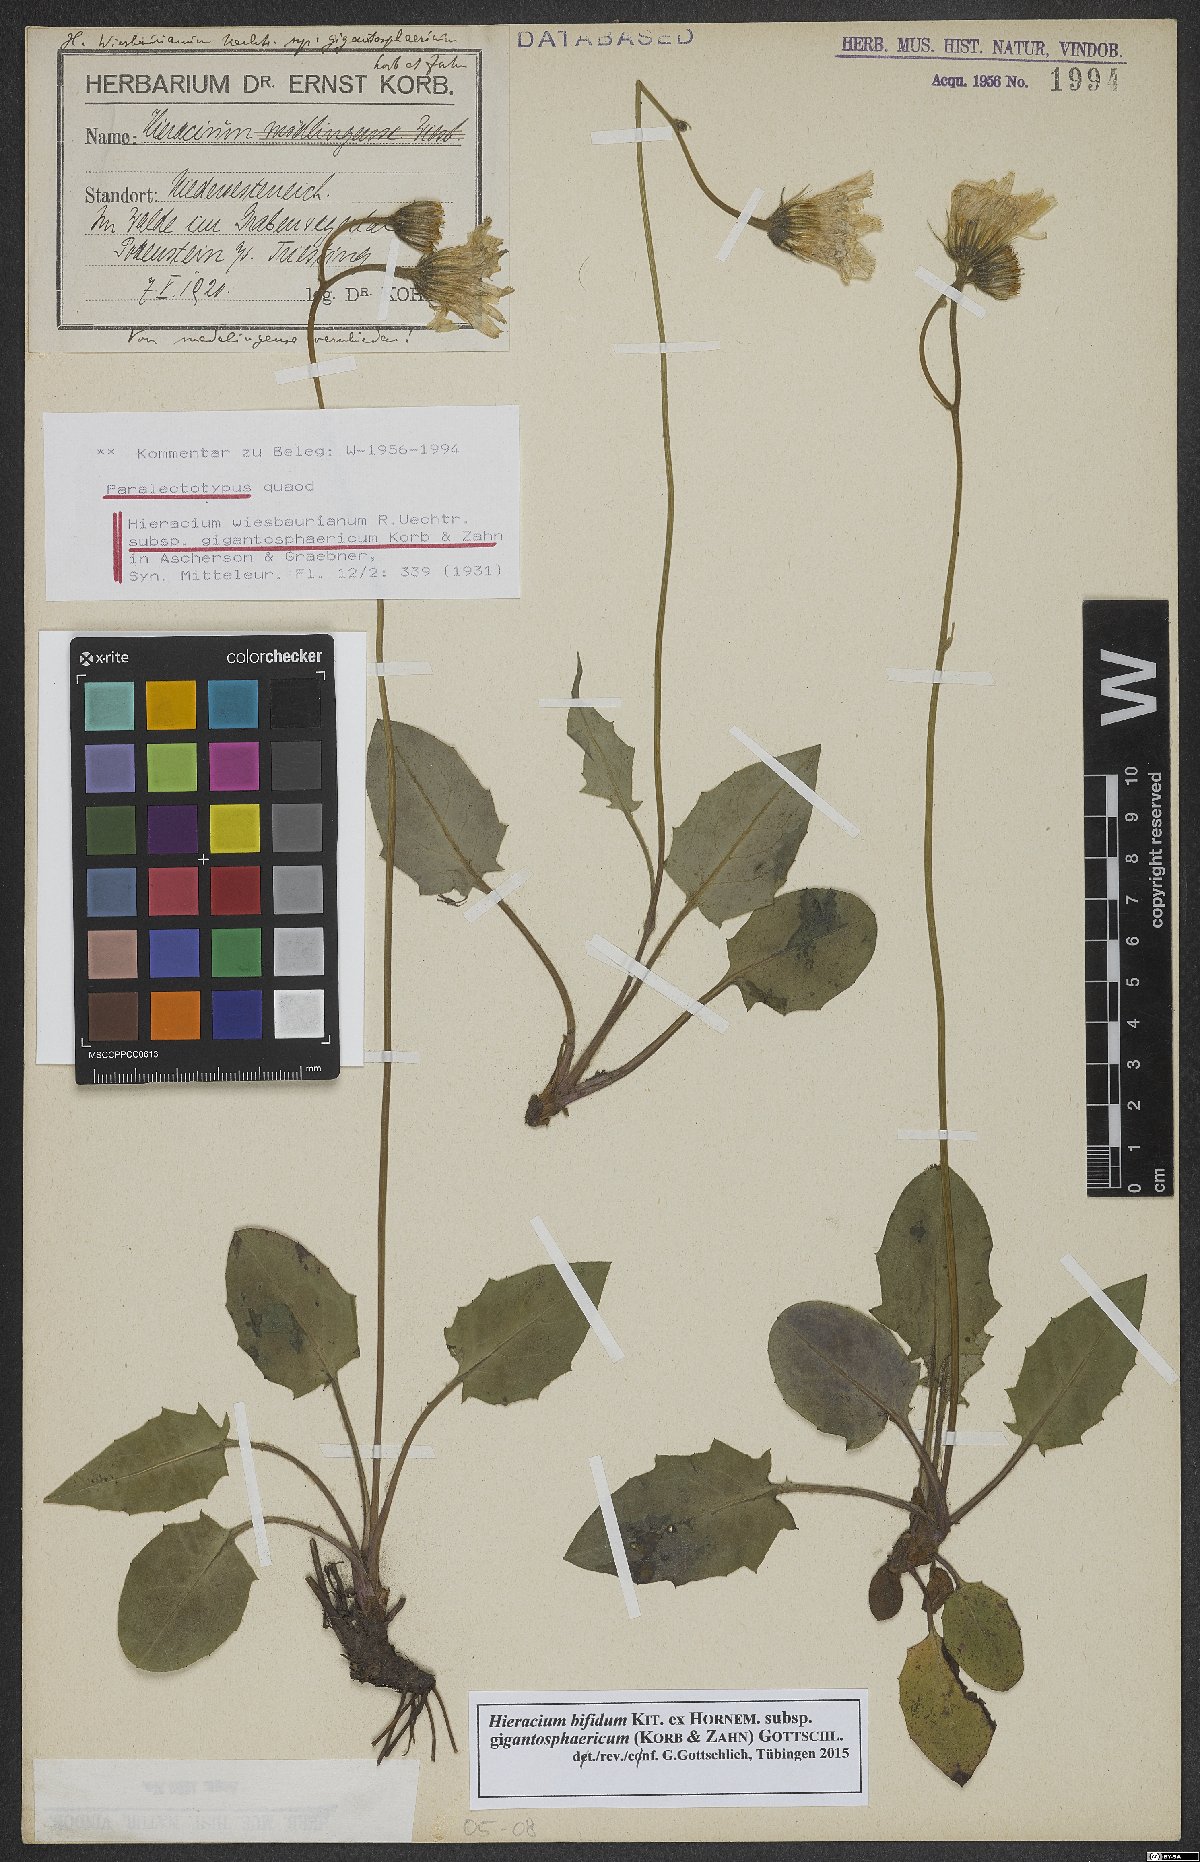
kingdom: Plantae
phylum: Tracheophyta
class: Magnoliopsida
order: Asterales
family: Asteraceae
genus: Hieracium
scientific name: Hieracium bifidum
